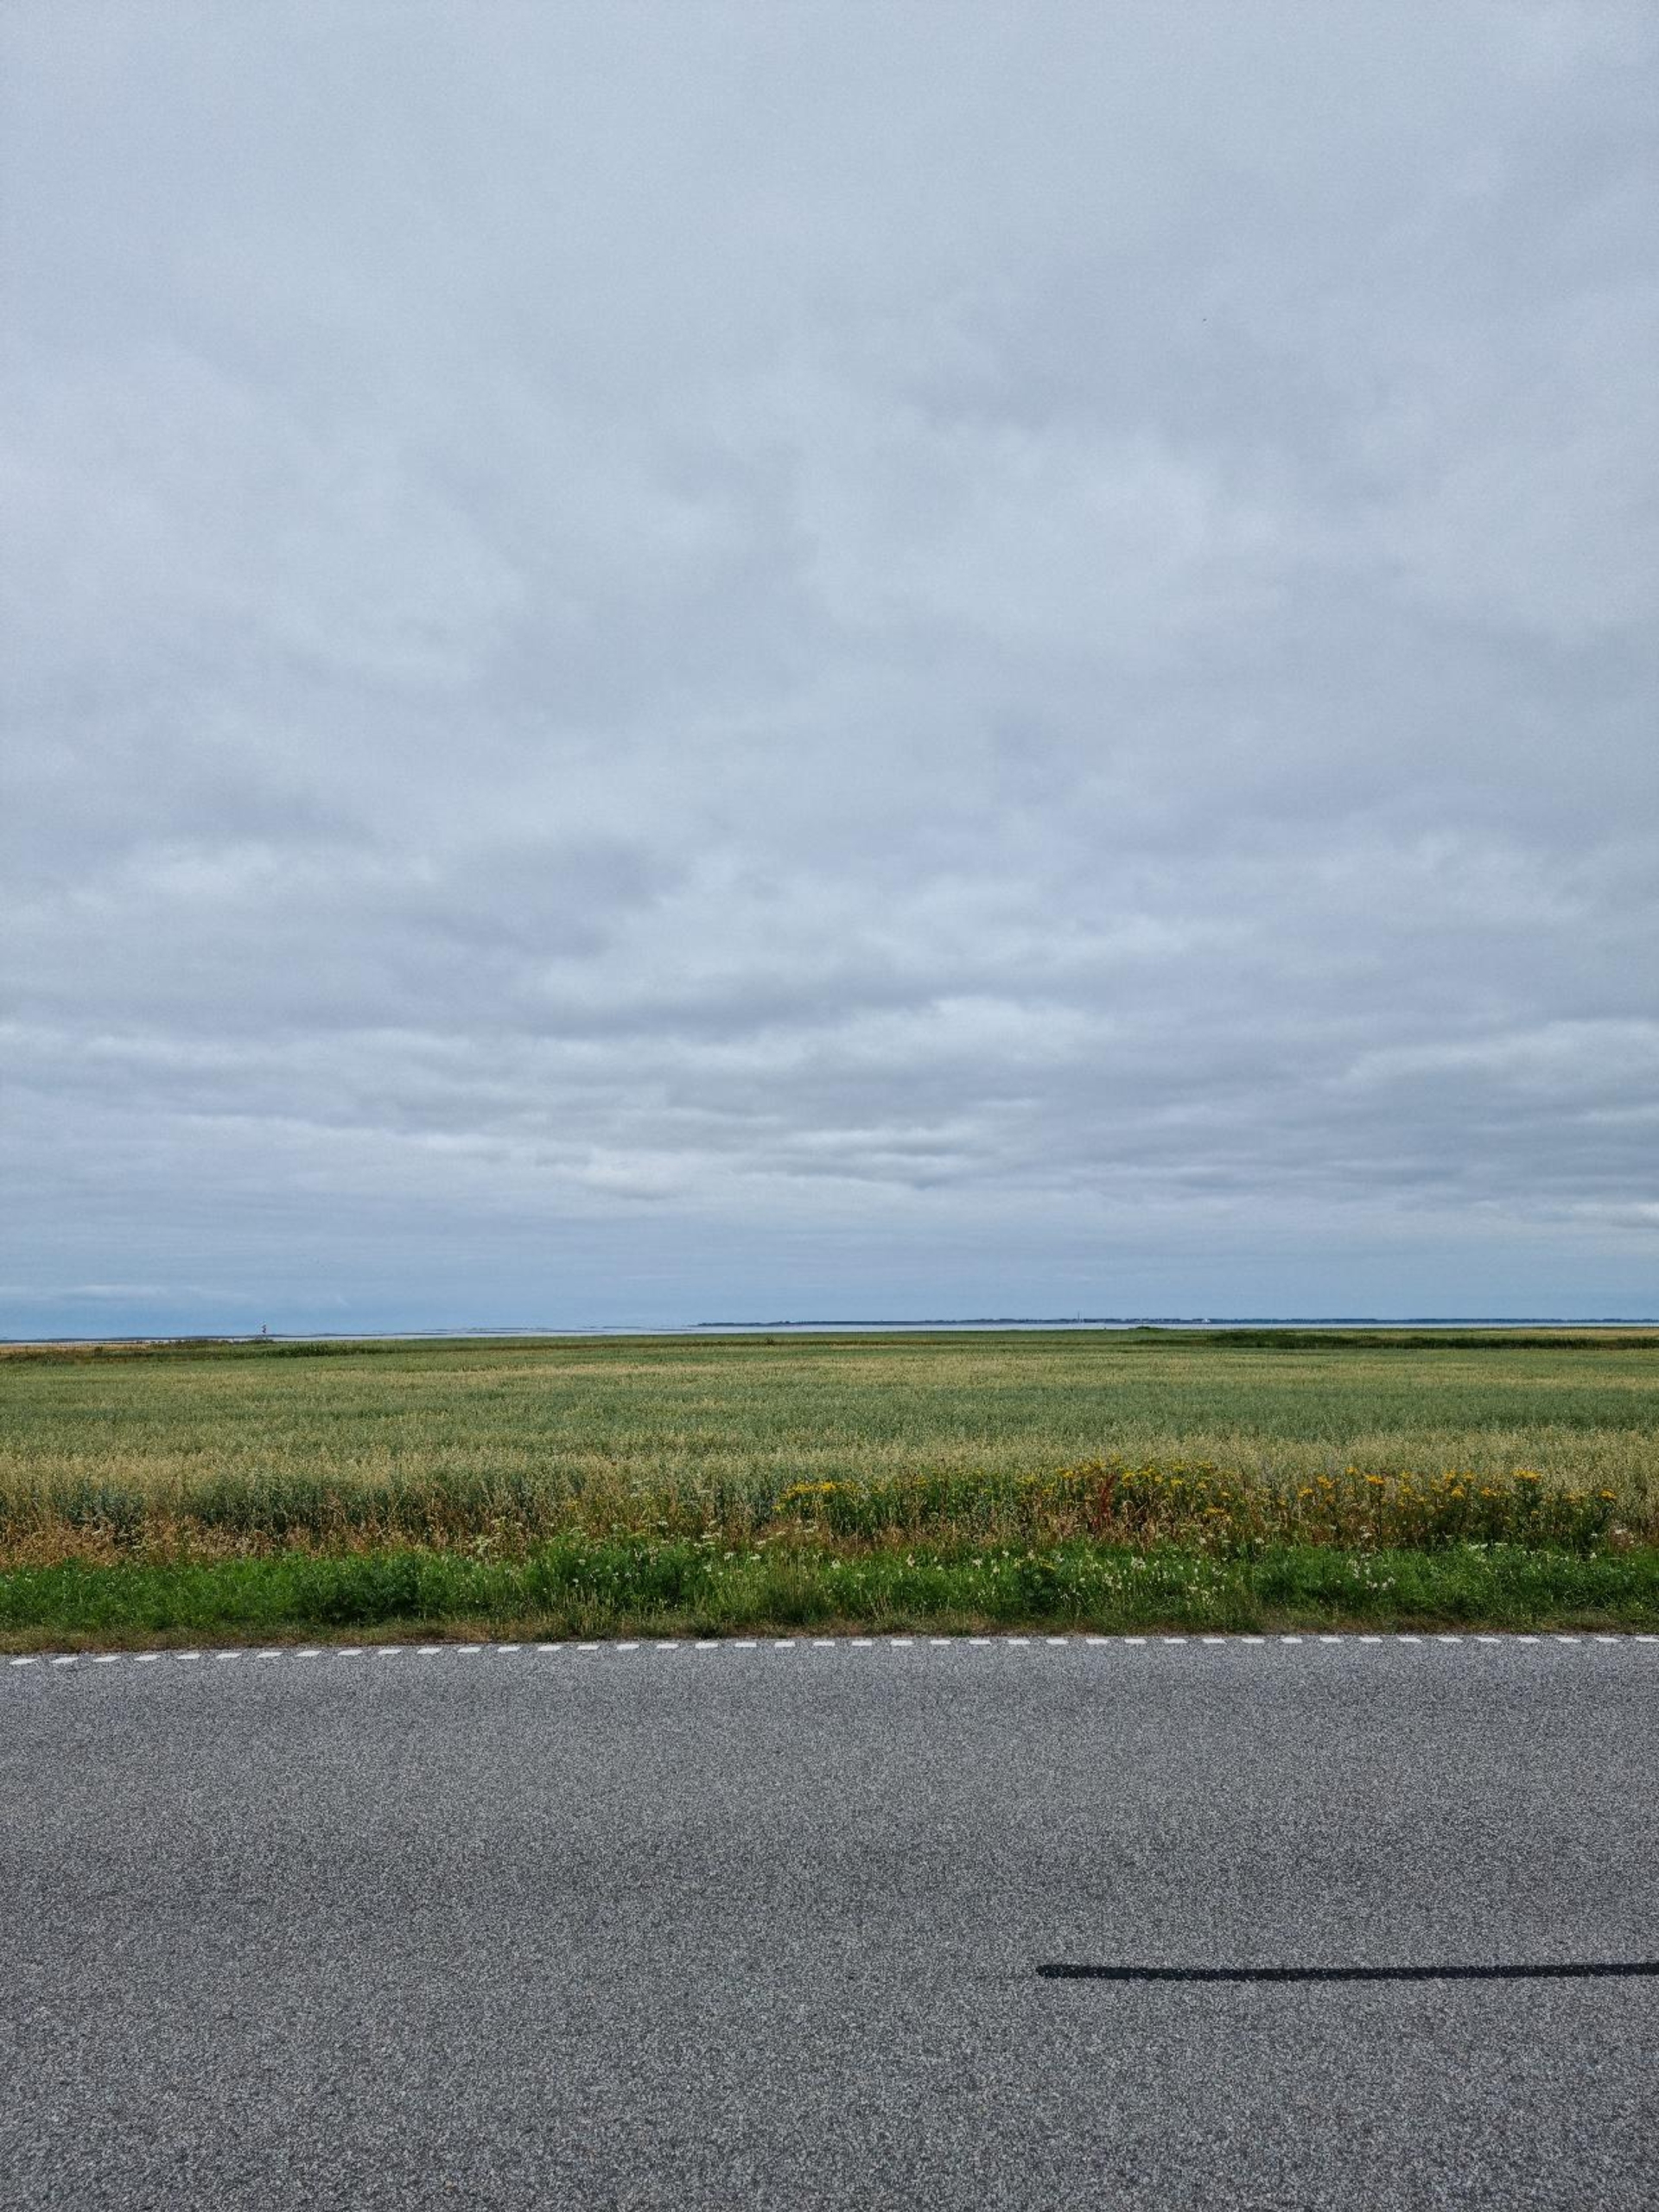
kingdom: Animalia
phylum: Chordata
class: Aves
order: Passeriformes
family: Alaudidae
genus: Alauda
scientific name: Alauda arvensis
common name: Sanglærke
